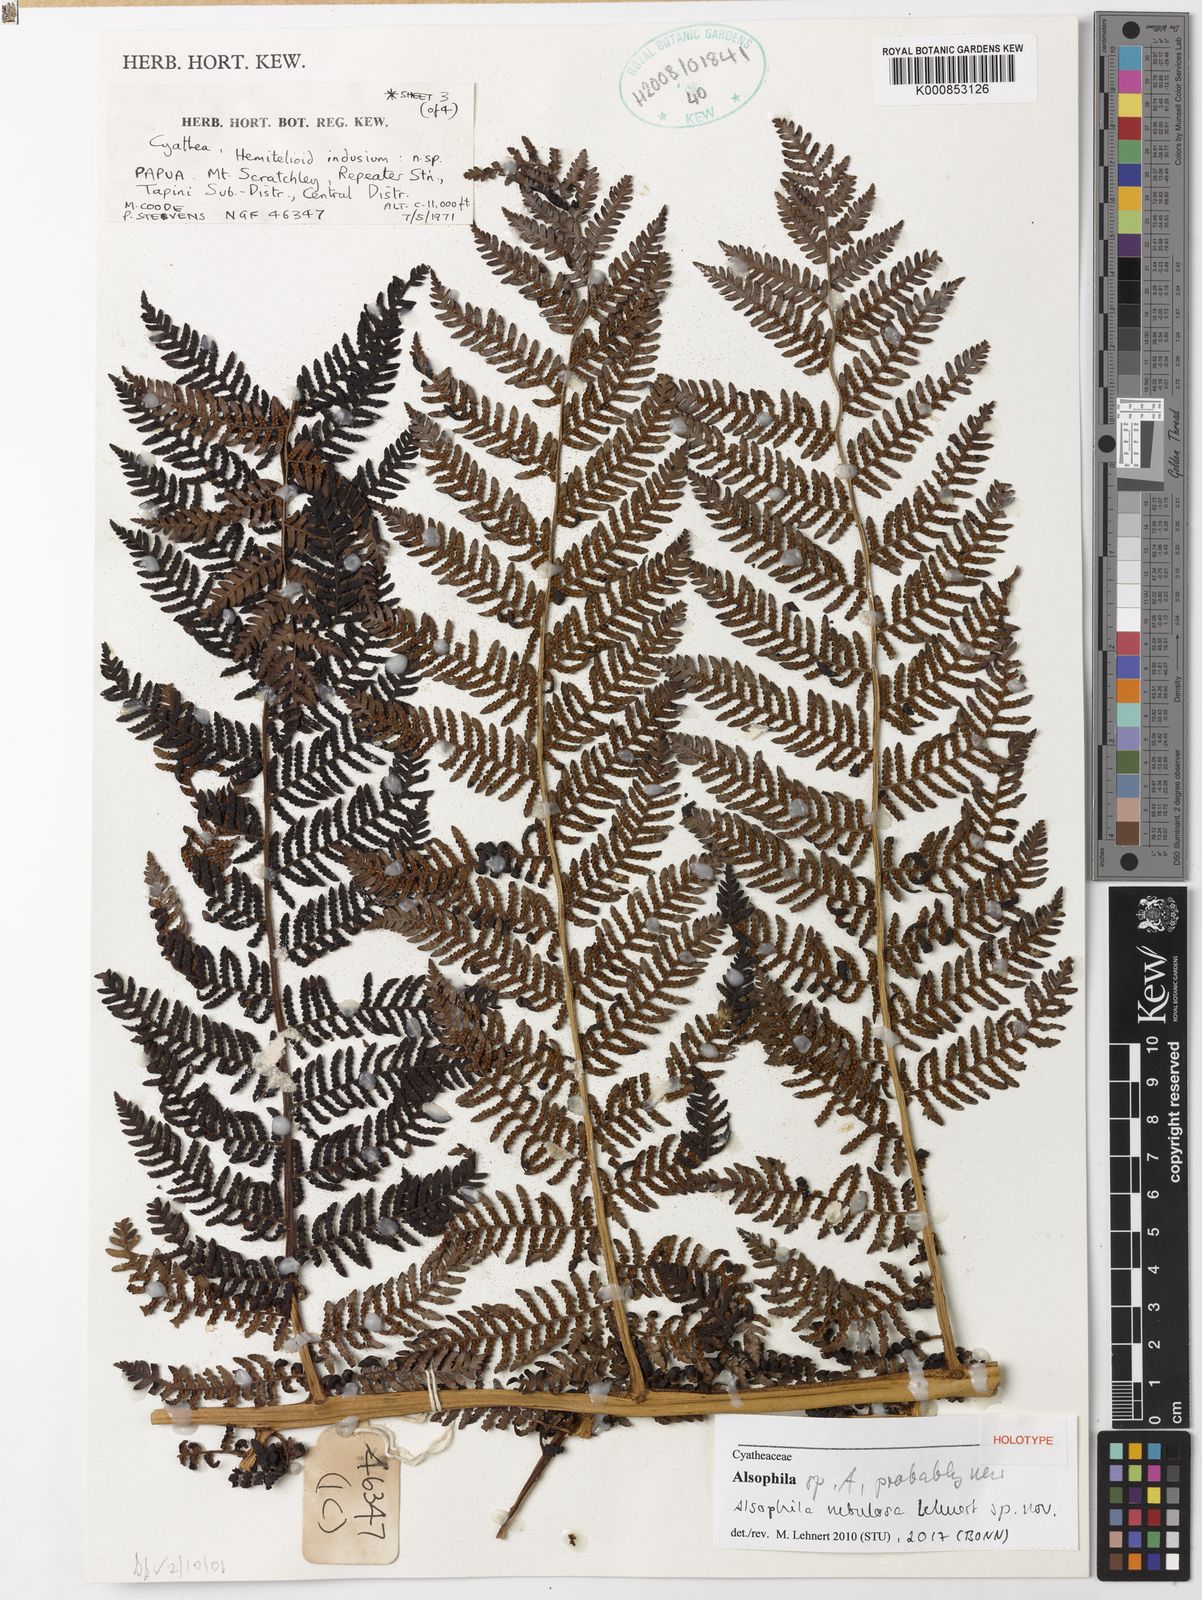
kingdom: Plantae
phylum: Tracheophyta
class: Polypodiopsida
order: Cyatheales
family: Cyatheaceae
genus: Alsophila
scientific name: Alsophila nebulosa
